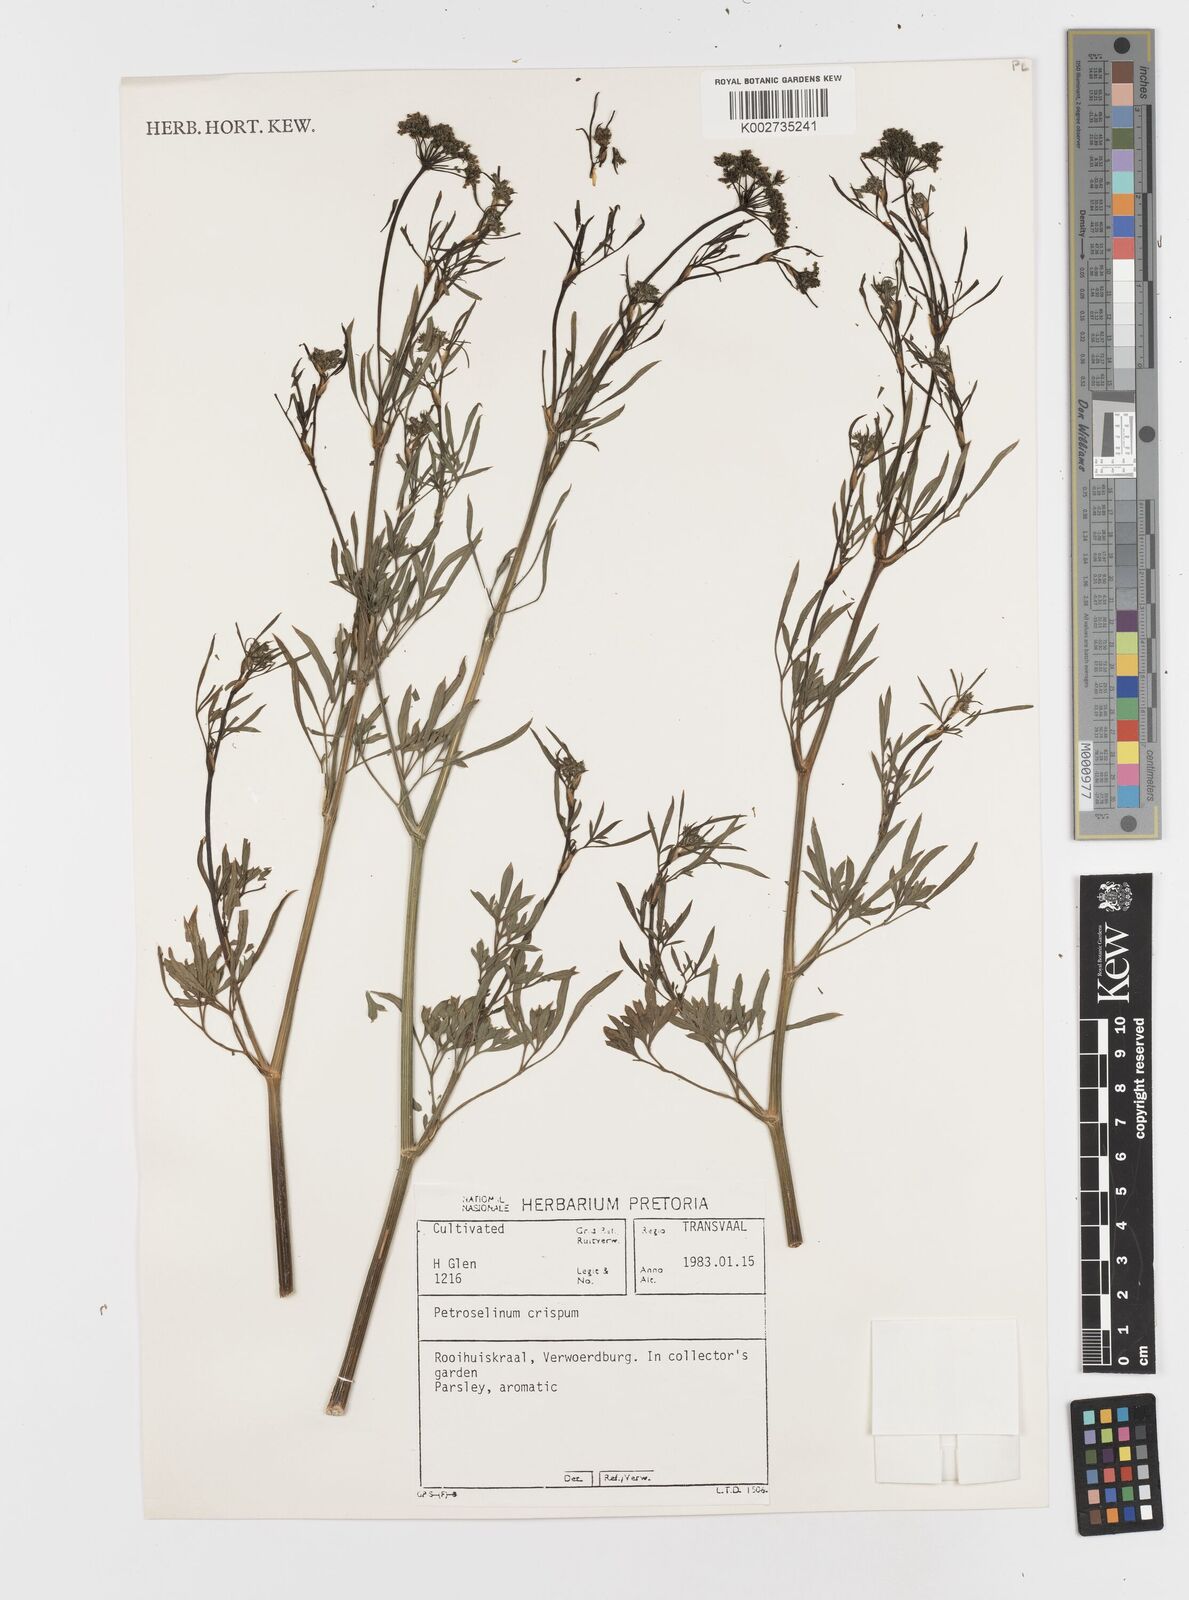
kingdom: Plantae
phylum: Tracheophyta
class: Magnoliopsida
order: Apiales
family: Apiaceae
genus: Petroselinum
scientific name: Petroselinum crispum
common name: Parsley
